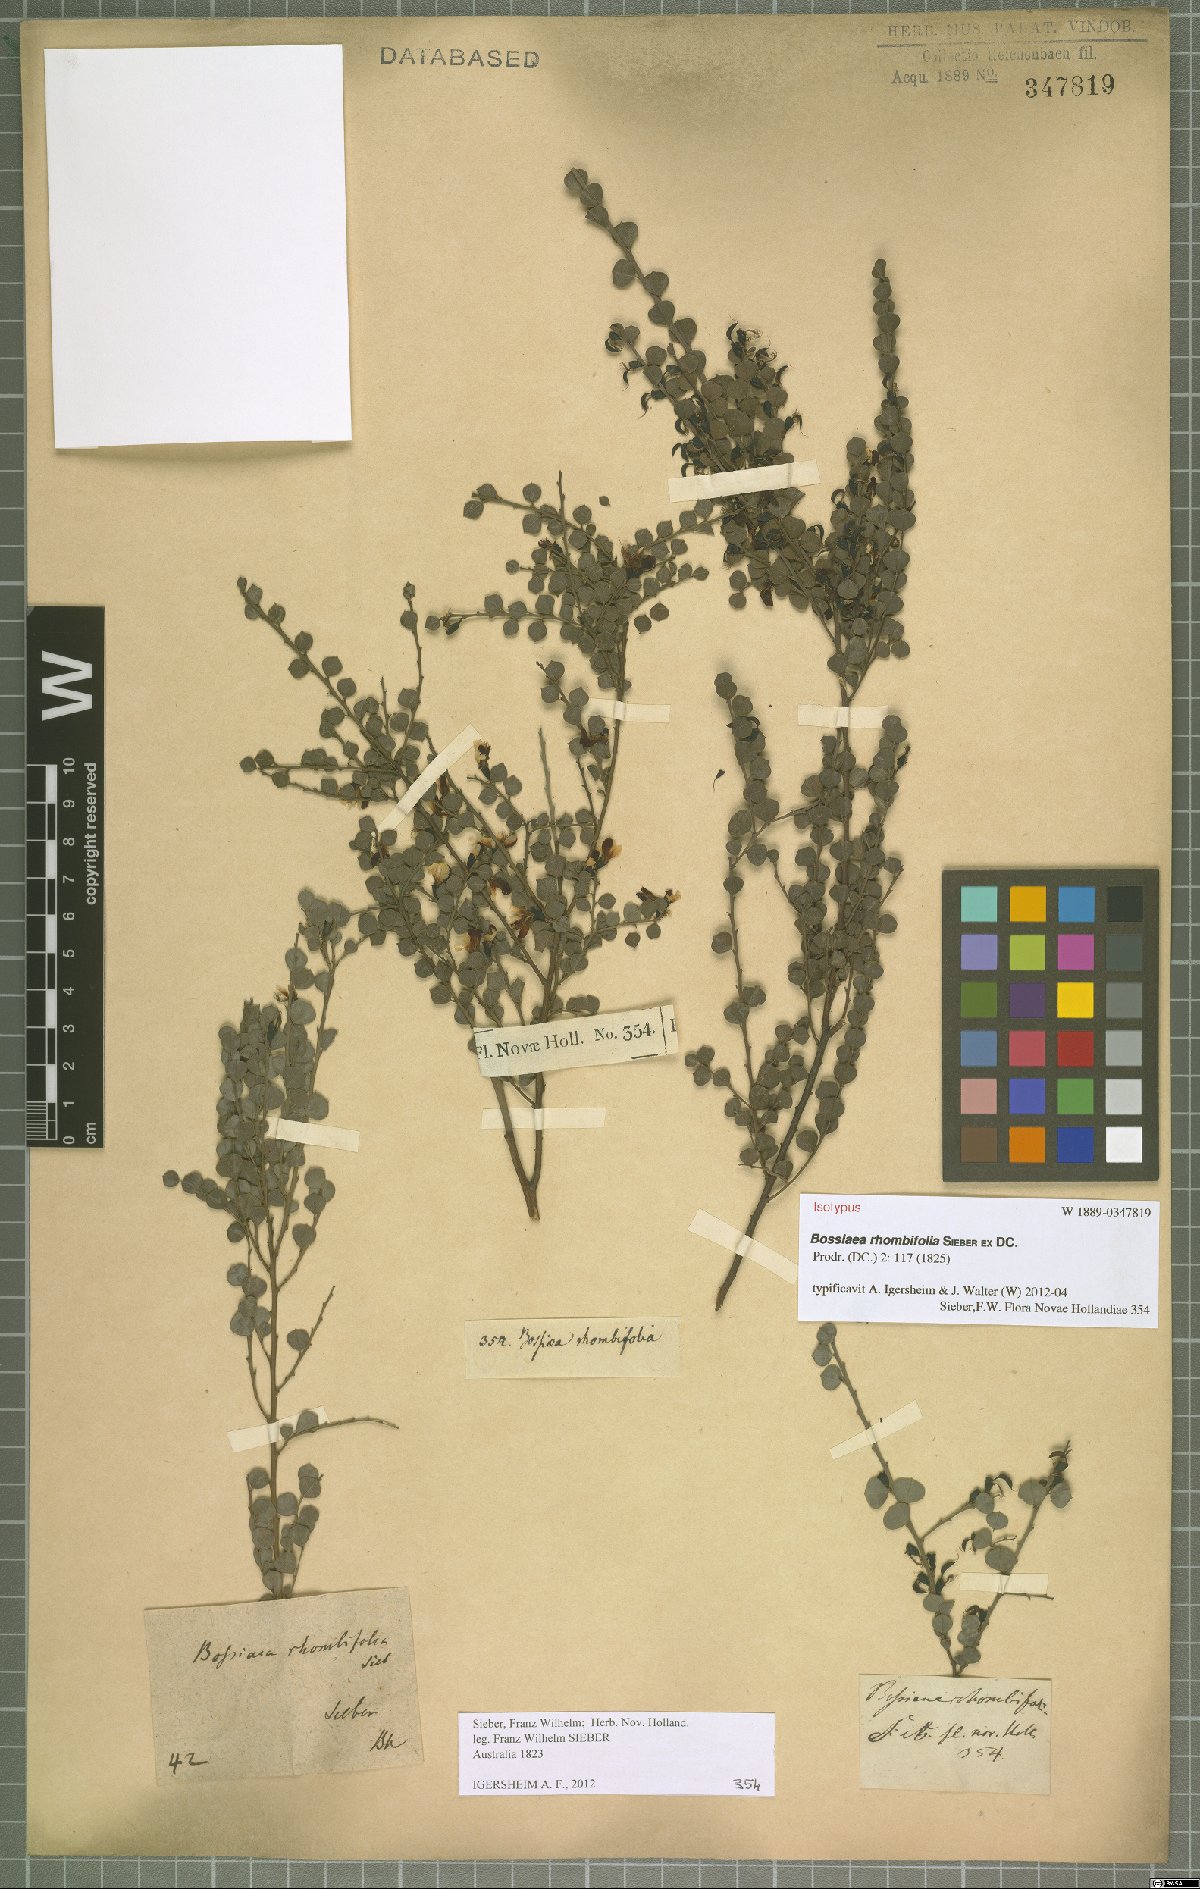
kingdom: Plantae
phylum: Tracheophyta
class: Magnoliopsida
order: Fabales
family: Fabaceae
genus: Bossiaea
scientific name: Bossiaea rhombifolia
